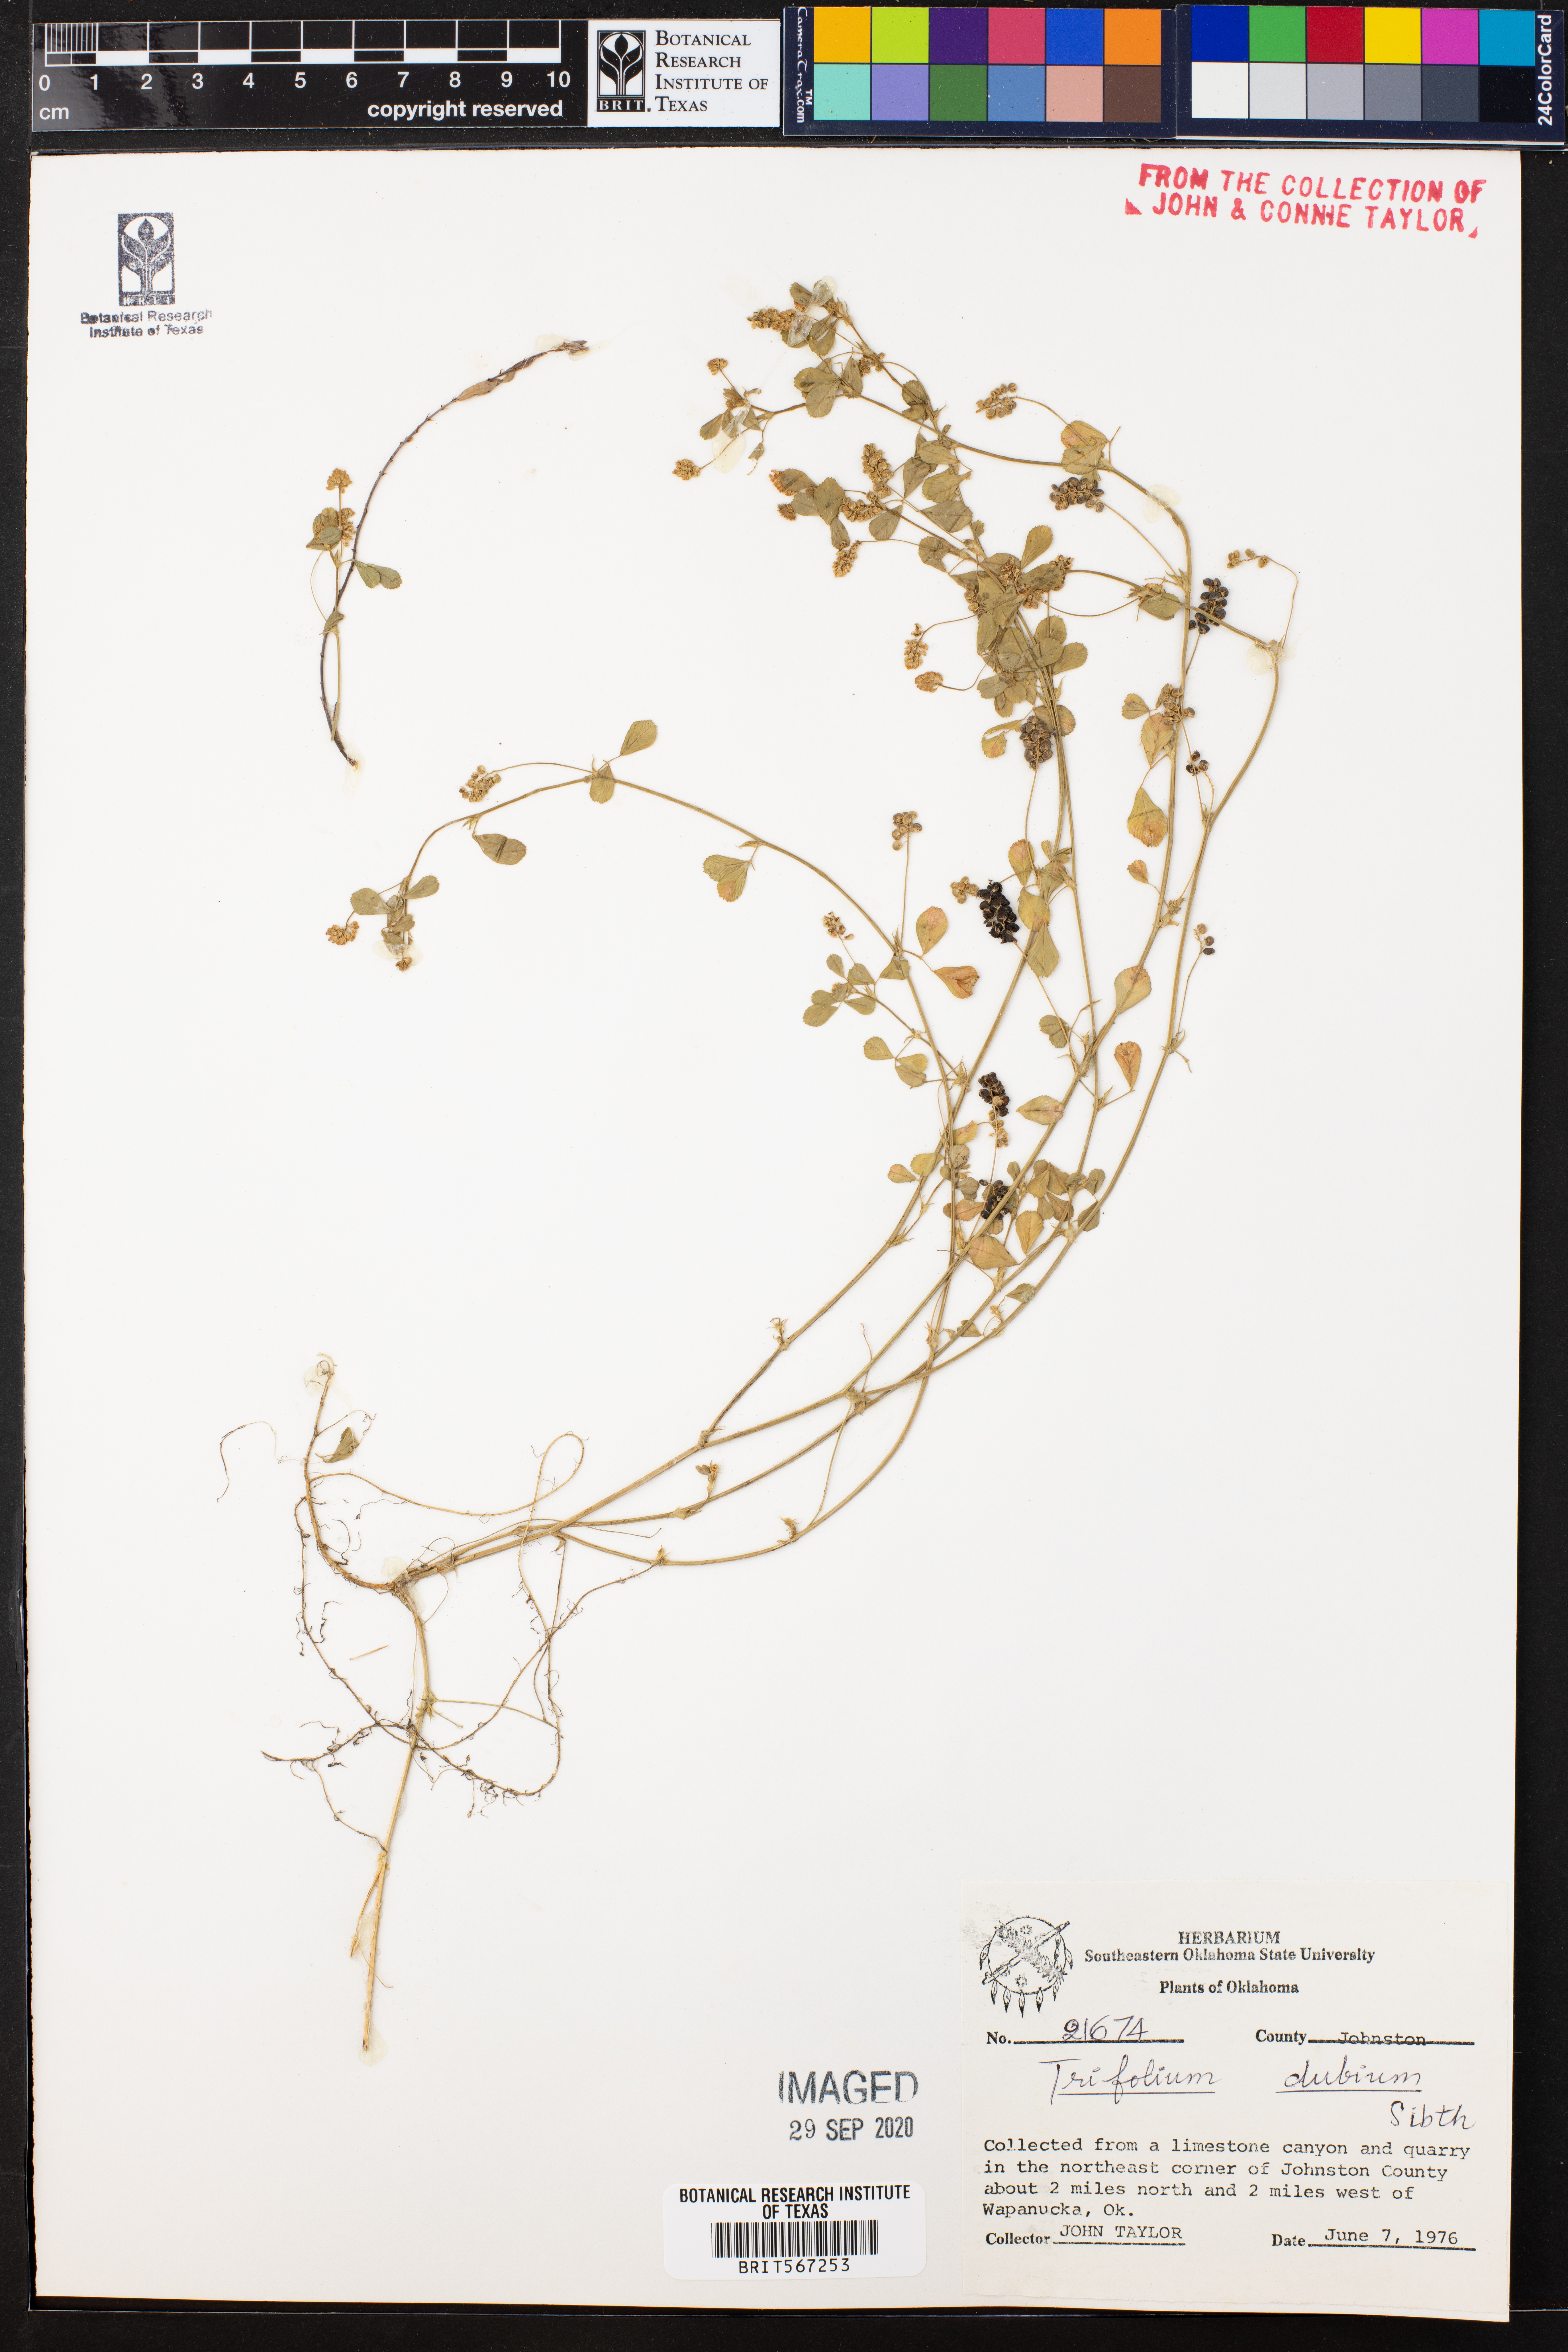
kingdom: Plantae
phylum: Tracheophyta
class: Magnoliopsida
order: Fabales
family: Fabaceae
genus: Trifolium
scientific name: Trifolium dubium
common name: Suckling clover
